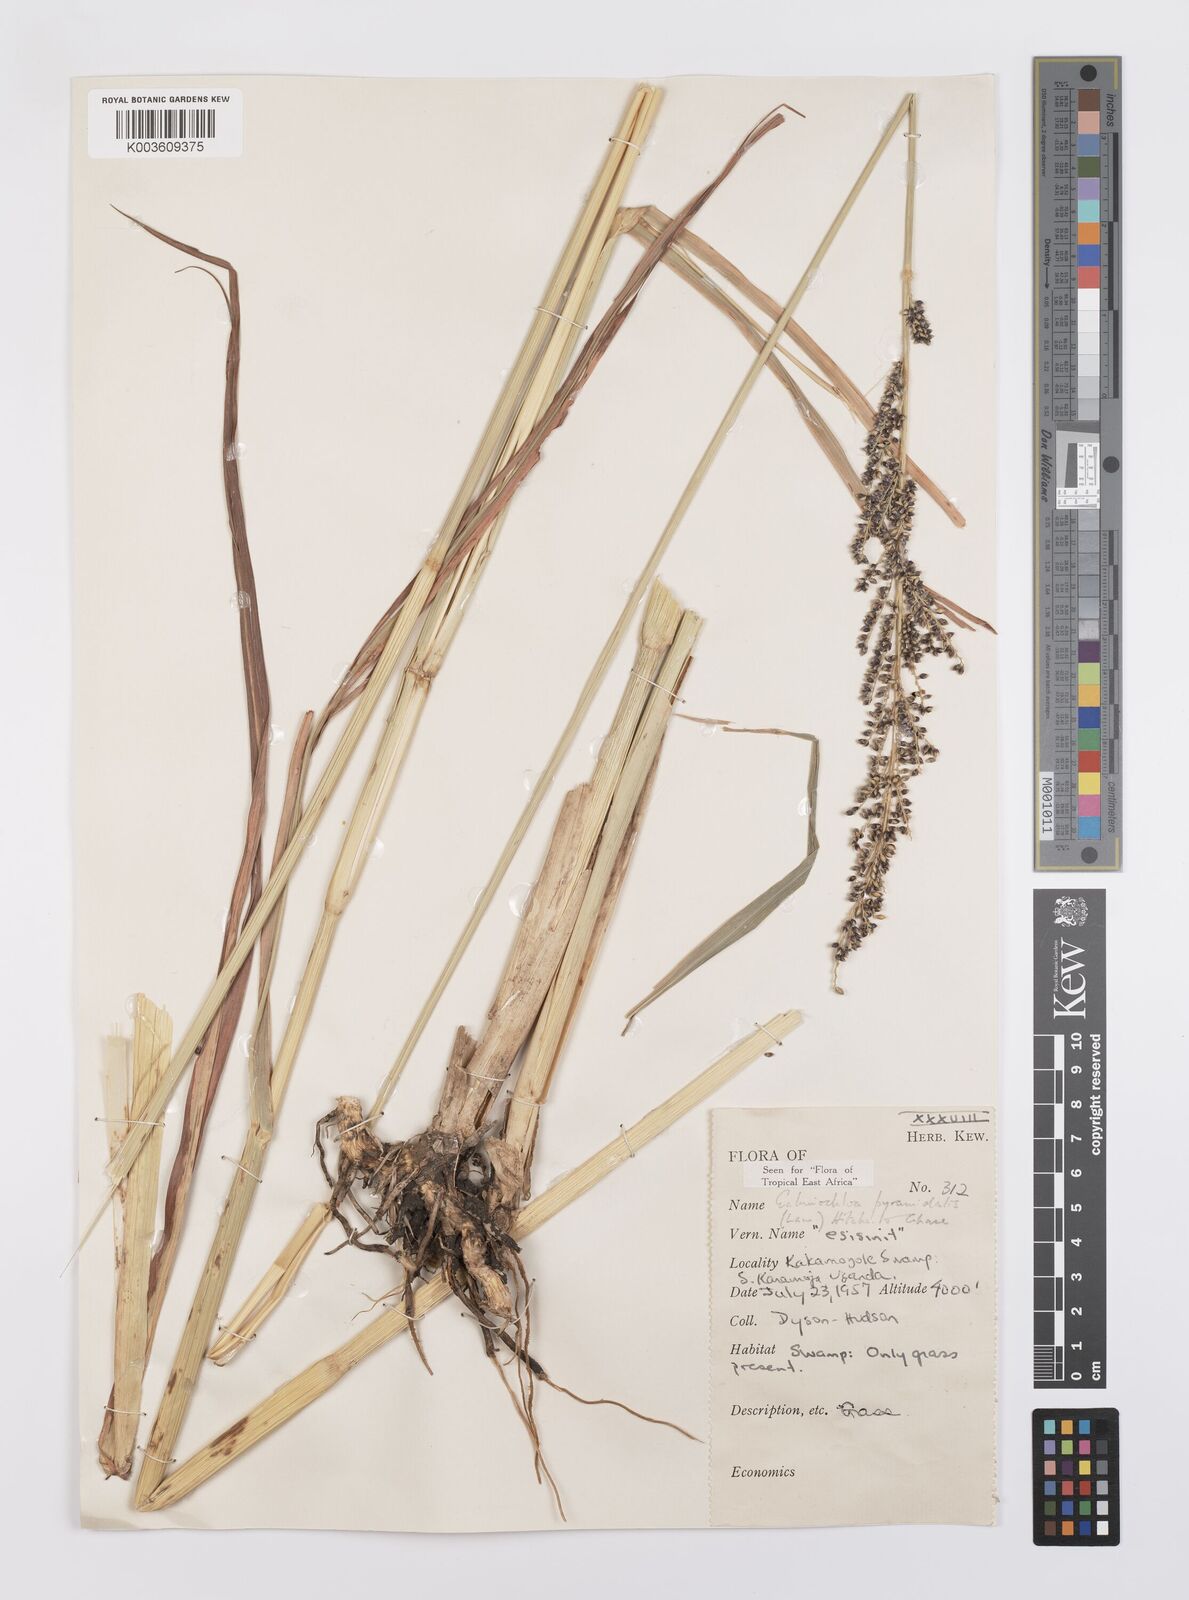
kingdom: Plantae
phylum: Tracheophyta
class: Liliopsida
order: Poales
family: Poaceae
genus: Echinochloa
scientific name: Echinochloa haploclada
